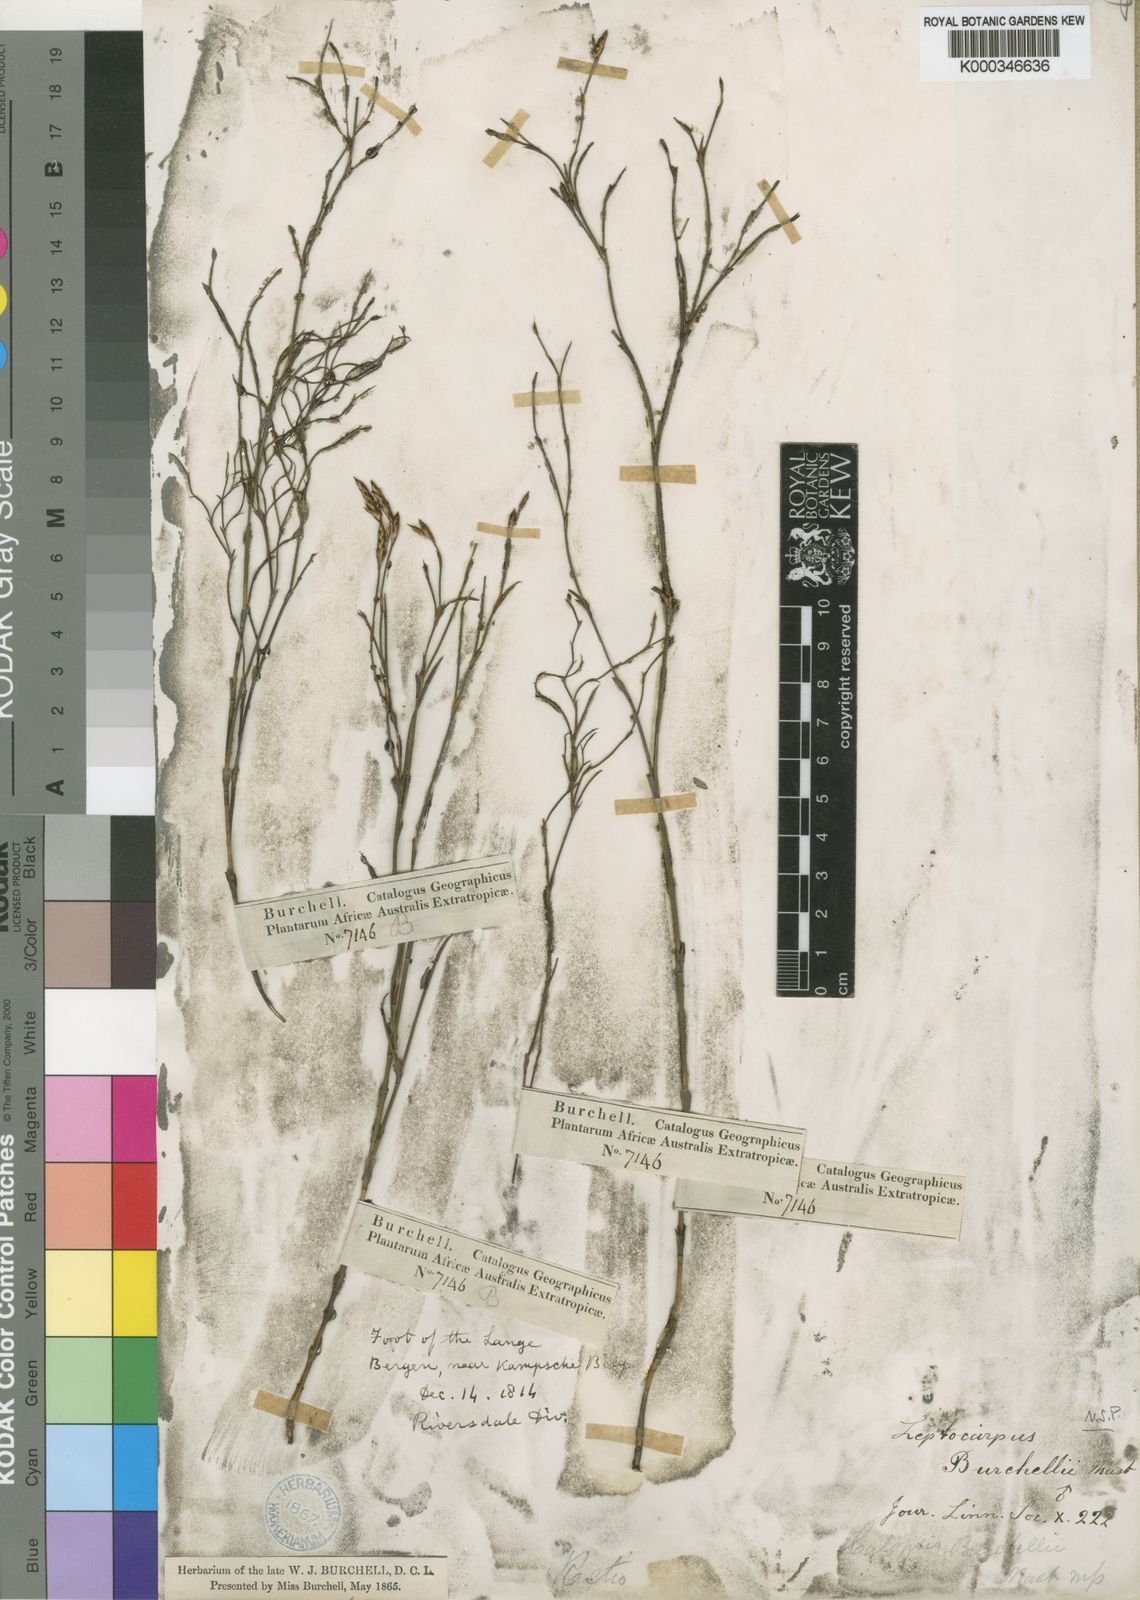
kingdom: Plantae
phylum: Tracheophyta
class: Liliopsida
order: Poales
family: Restionaceae
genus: Restio
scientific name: Restio albotuberculatus
